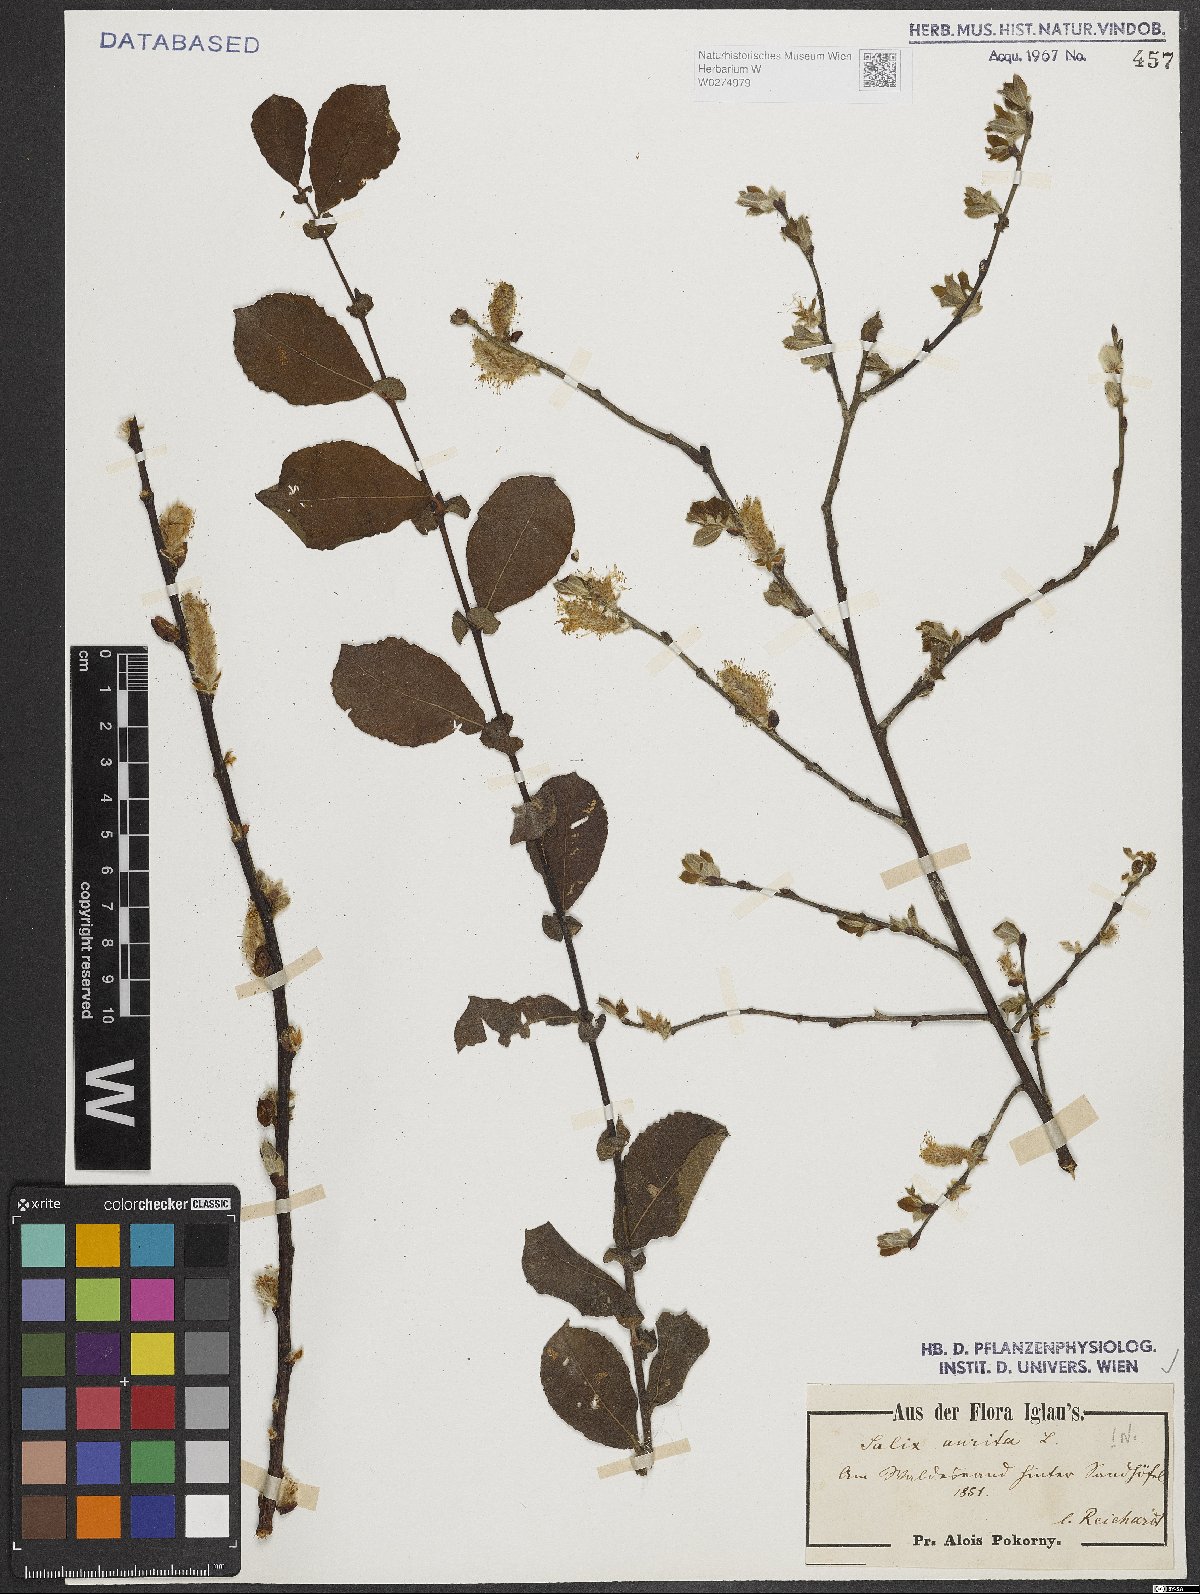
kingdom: Plantae
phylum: Tracheophyta
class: Magnoliopsida
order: Malpighiales
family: Salicaceae
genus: Salix
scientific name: Salix aurita
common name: Eared willow
